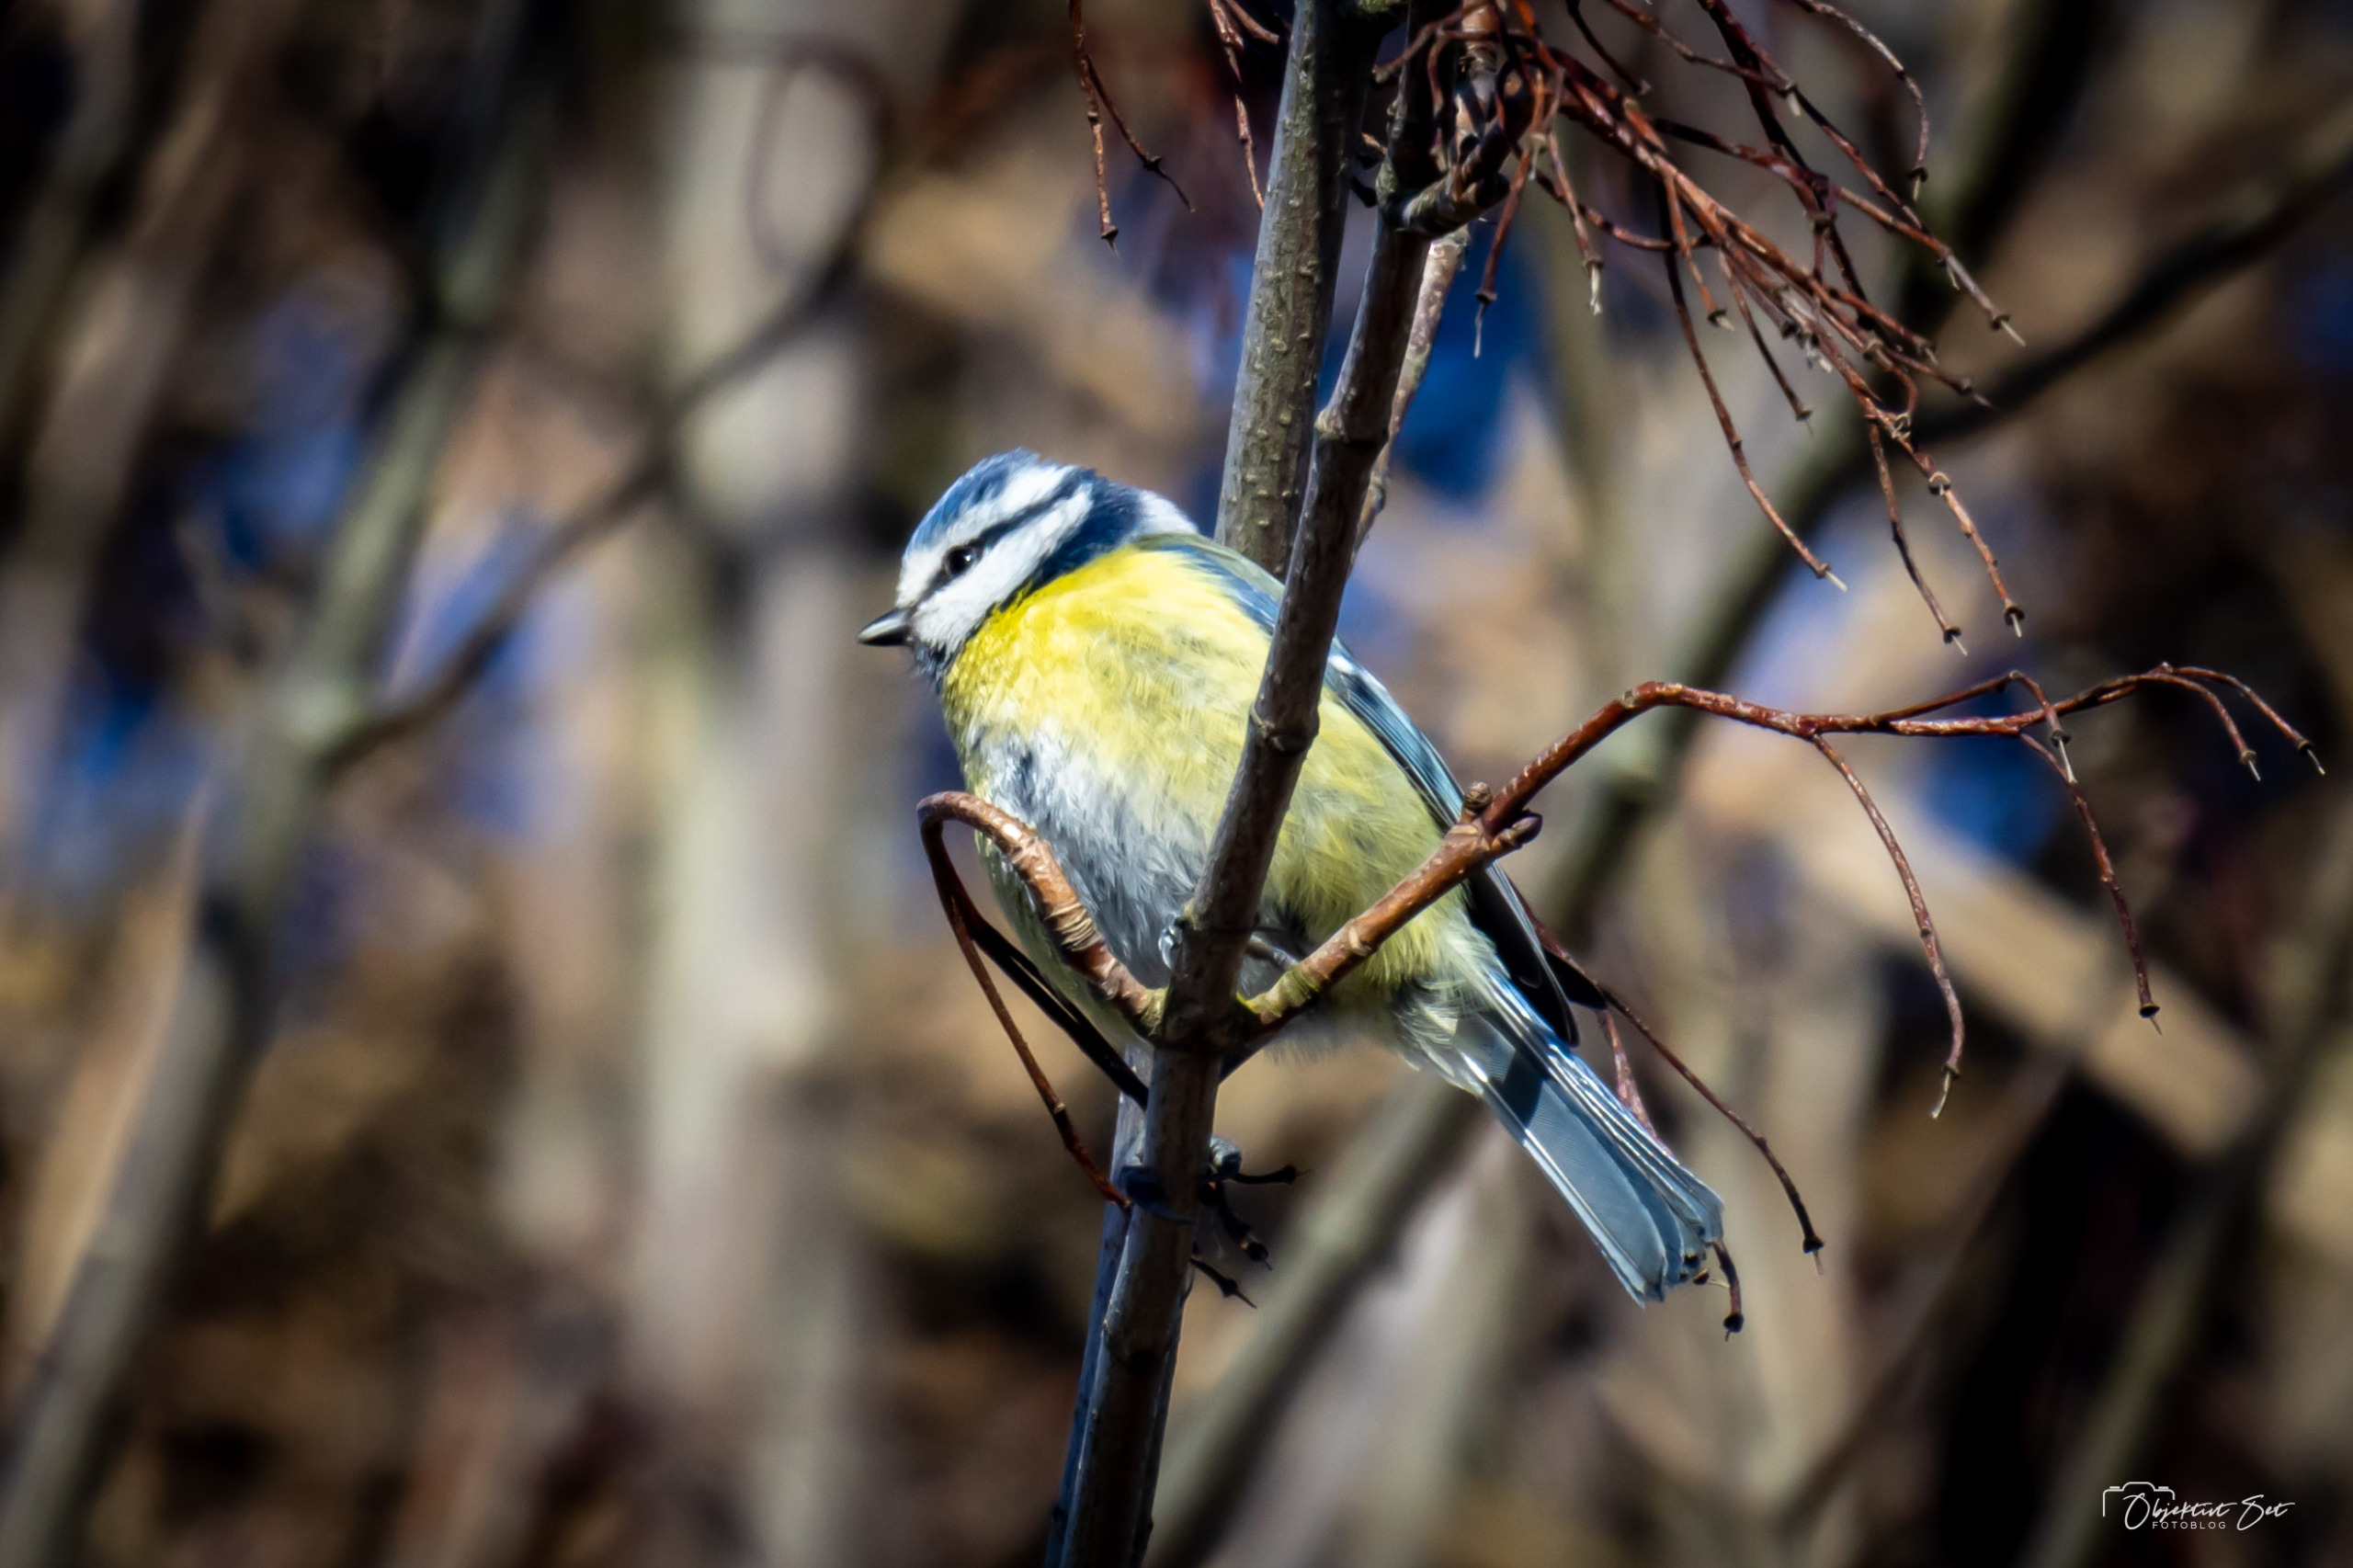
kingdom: Animalia
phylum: Chordata
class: Aves
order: Passeriformes
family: Paridae
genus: Cyanistes
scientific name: Cyanistes caeruleus
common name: Blåmejse
